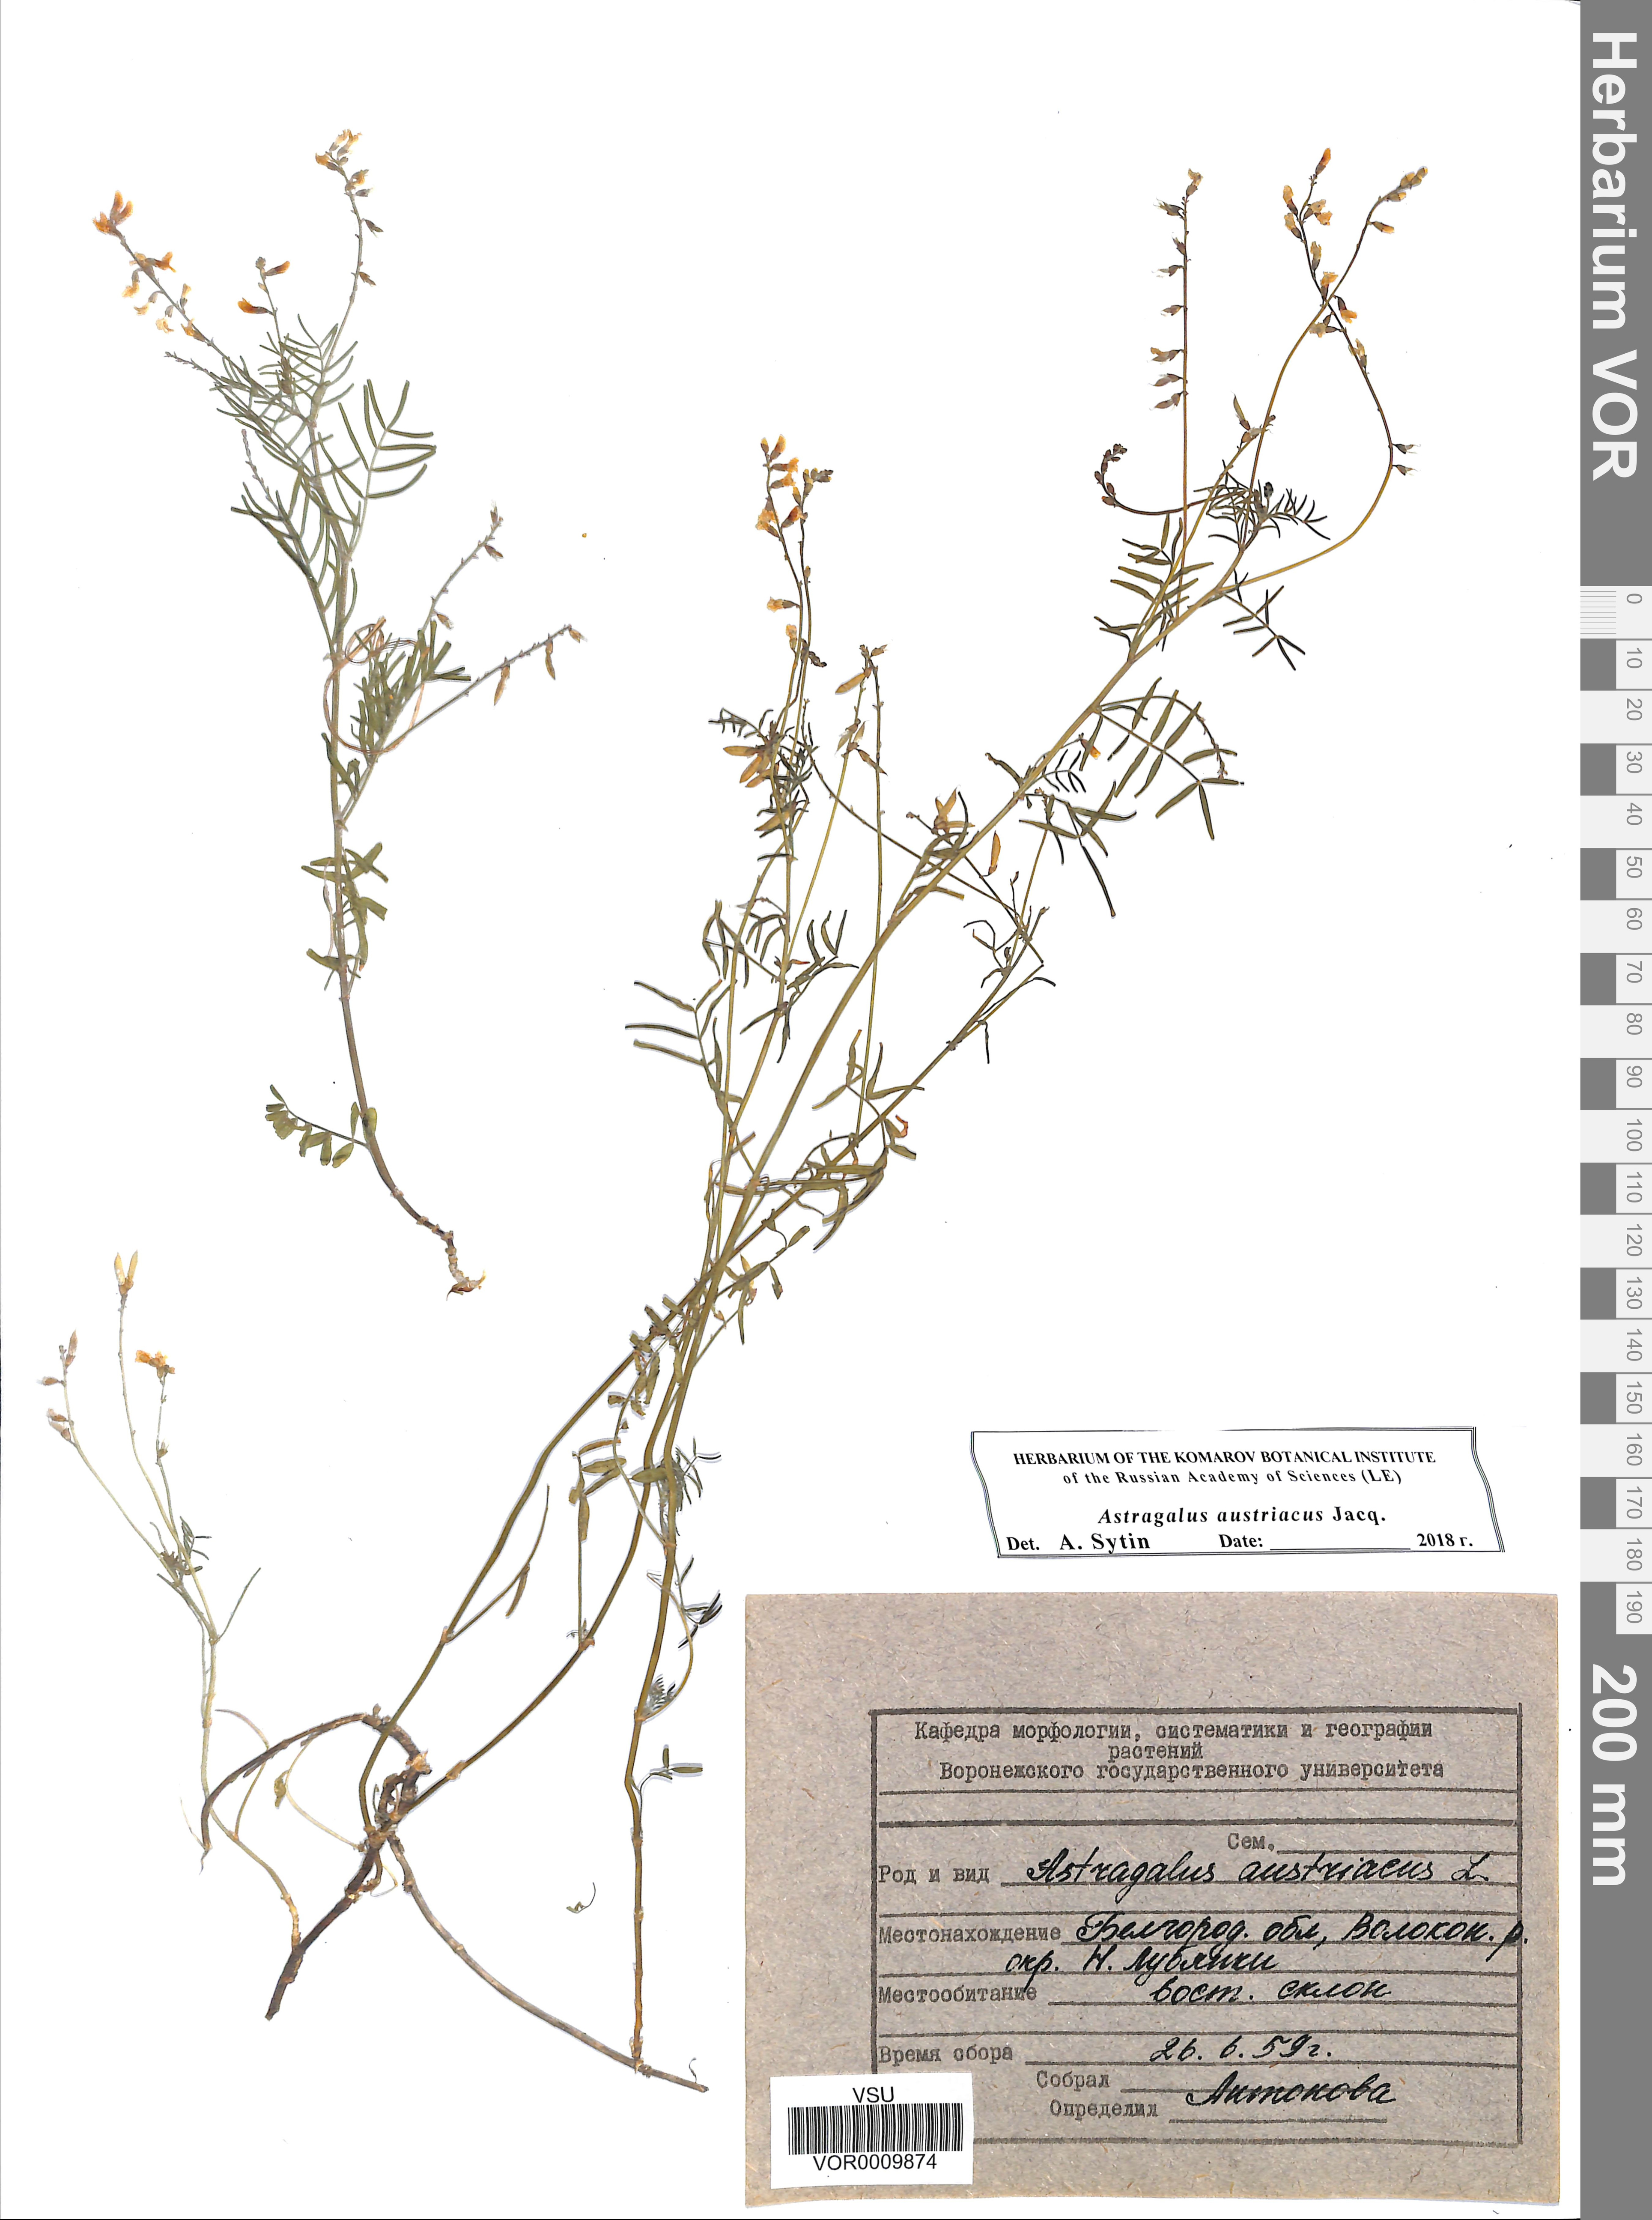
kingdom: Plantae
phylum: Tracheophyta
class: Magnoliopsida
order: Fabales
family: Fabaceae
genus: Astragalus
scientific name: Astragalus austriacus
